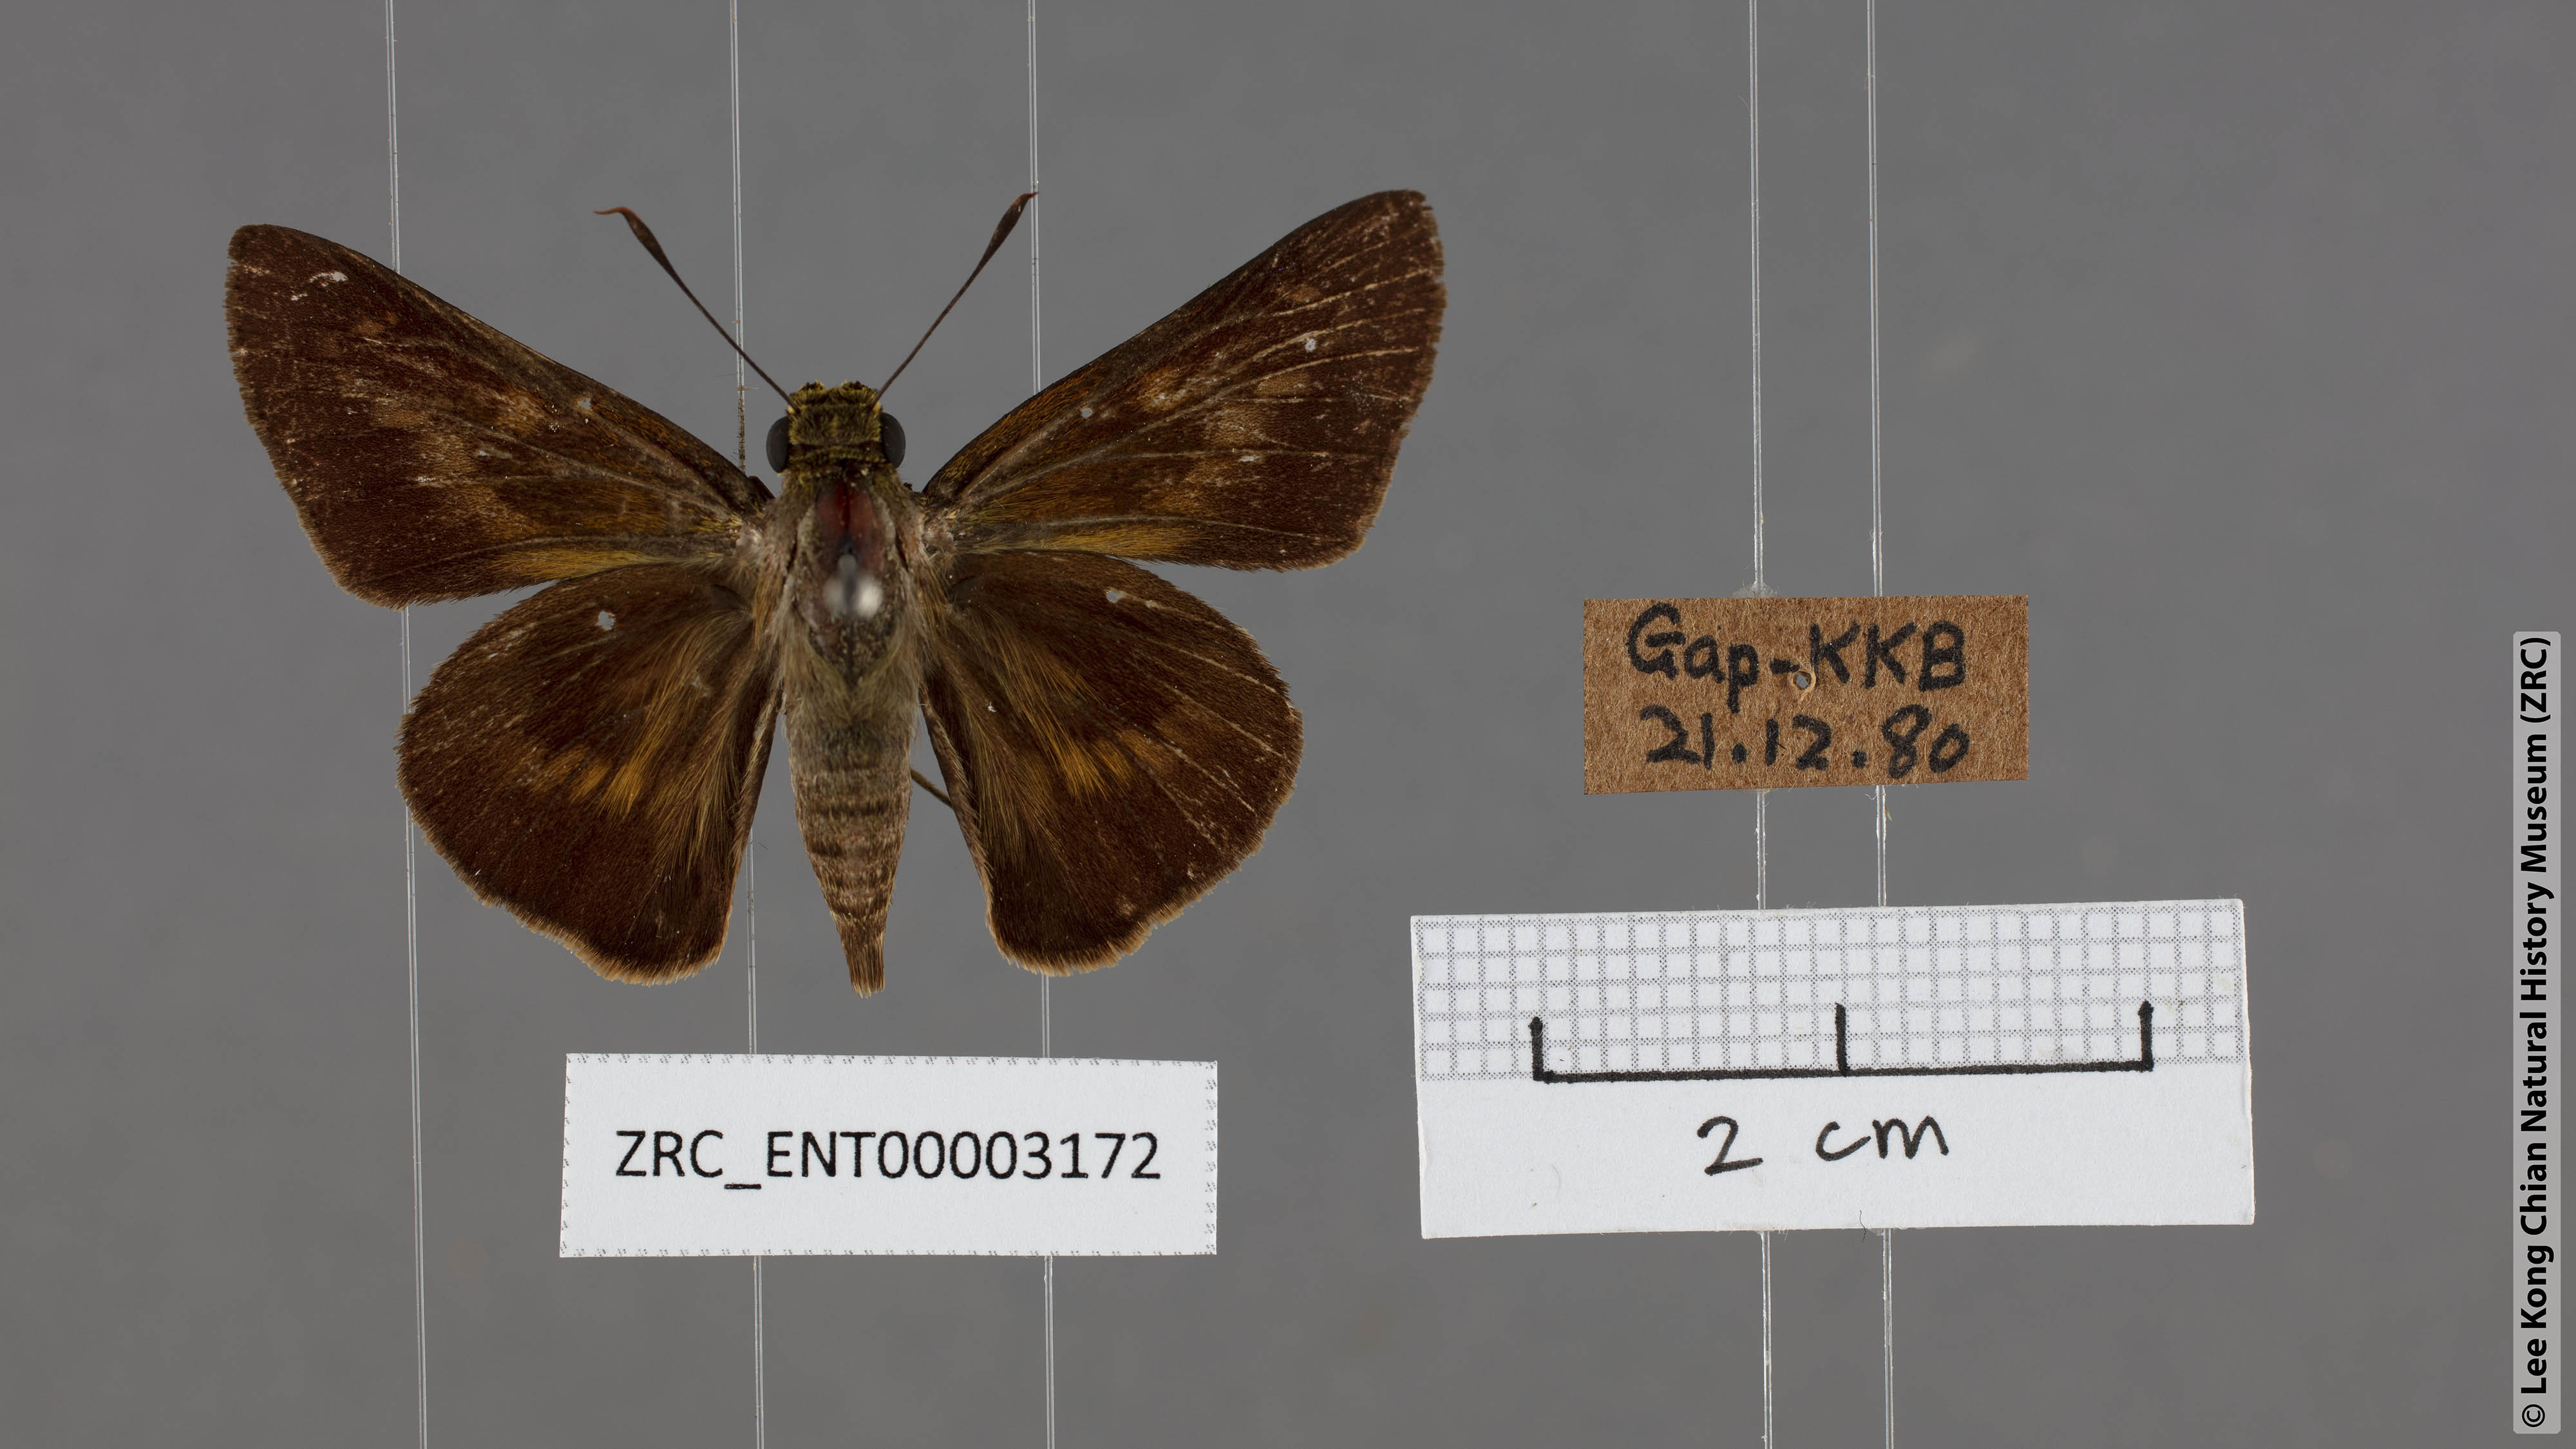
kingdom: Animalia
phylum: Arthropoda
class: Insecta
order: Lepidoptera
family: Hesperiidae
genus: Cephrenes
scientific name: Cephrenes
